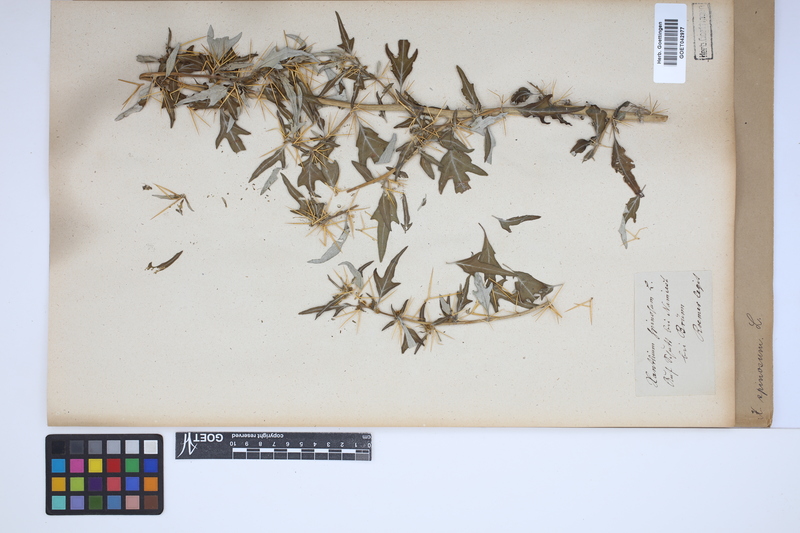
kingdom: Plantae
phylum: Tracheophyta
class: Magnoliopsida
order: Asterales
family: Asteraceae
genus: Xanthium
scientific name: Xanthium spinosum
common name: Spiny cocklebur
